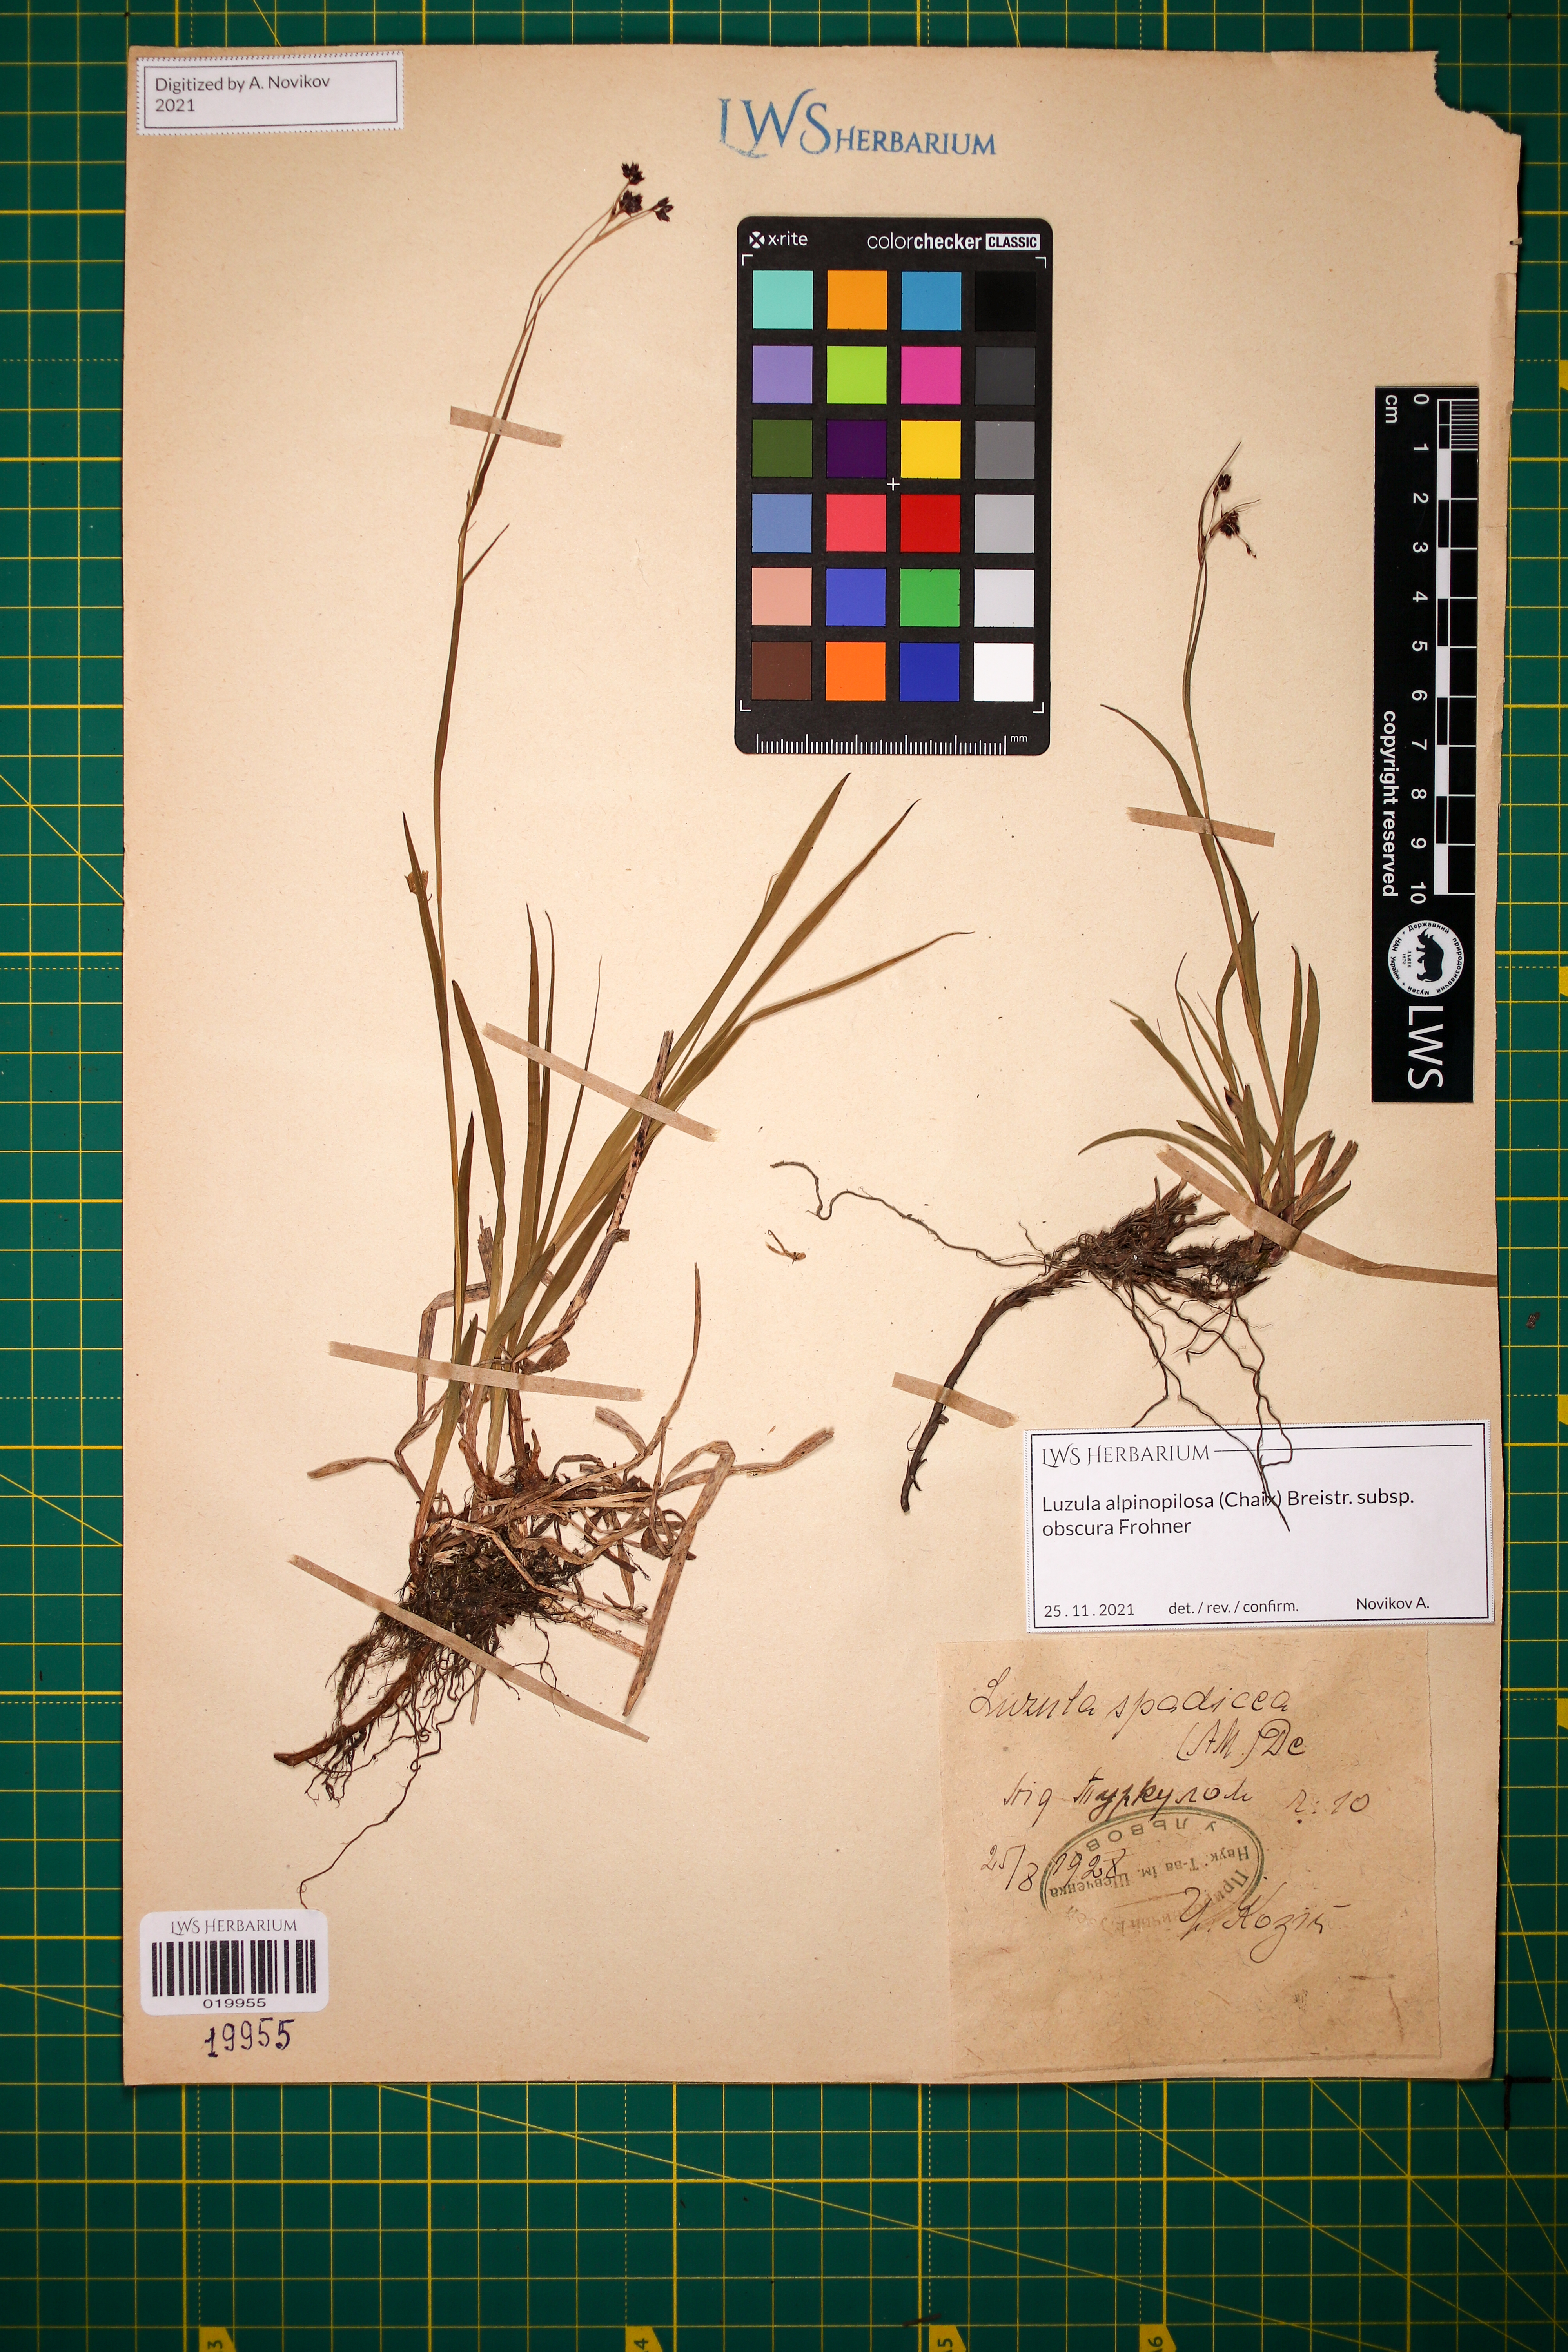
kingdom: Plantae
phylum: Tracheophyta
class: Liliopsida
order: Poales
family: Juncaceae
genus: Luzula
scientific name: Luzula alpinopilosa
